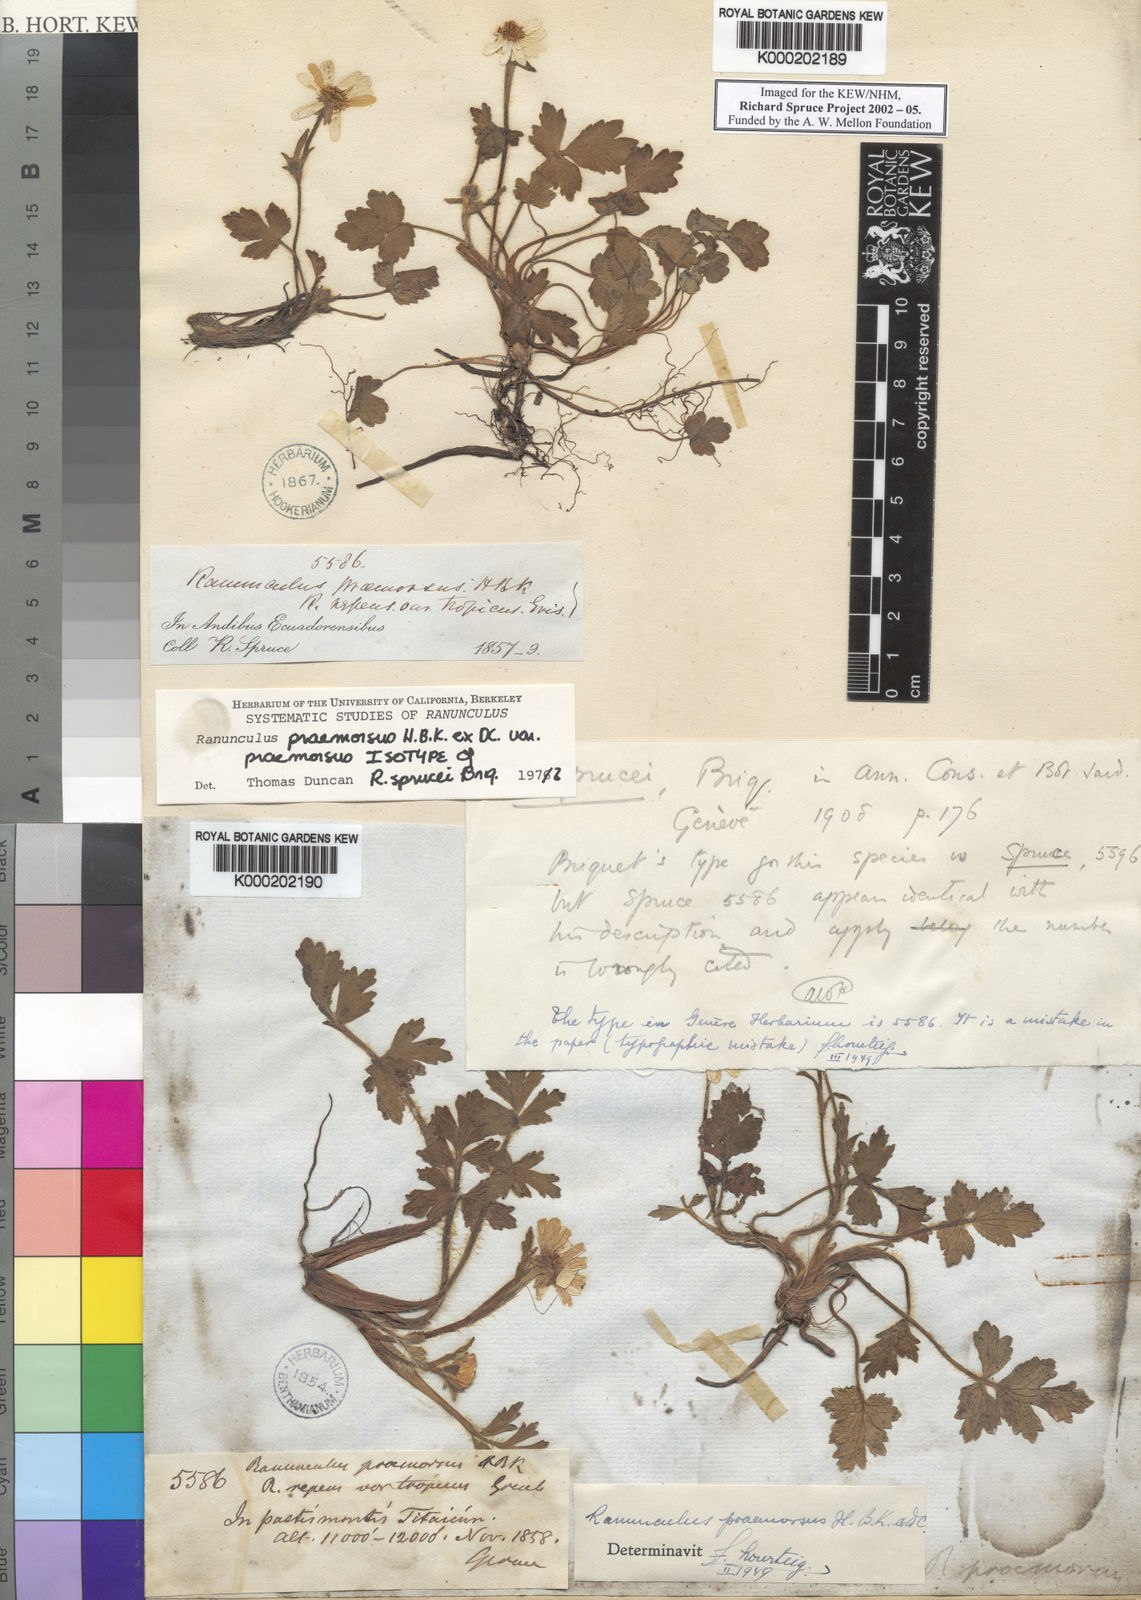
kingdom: Plantae
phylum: Tracheophyta
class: Magnoliopsida
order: Ranunculales
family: Ranunculaceae
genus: Ranunculus
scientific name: Ranunculus praemorsus
